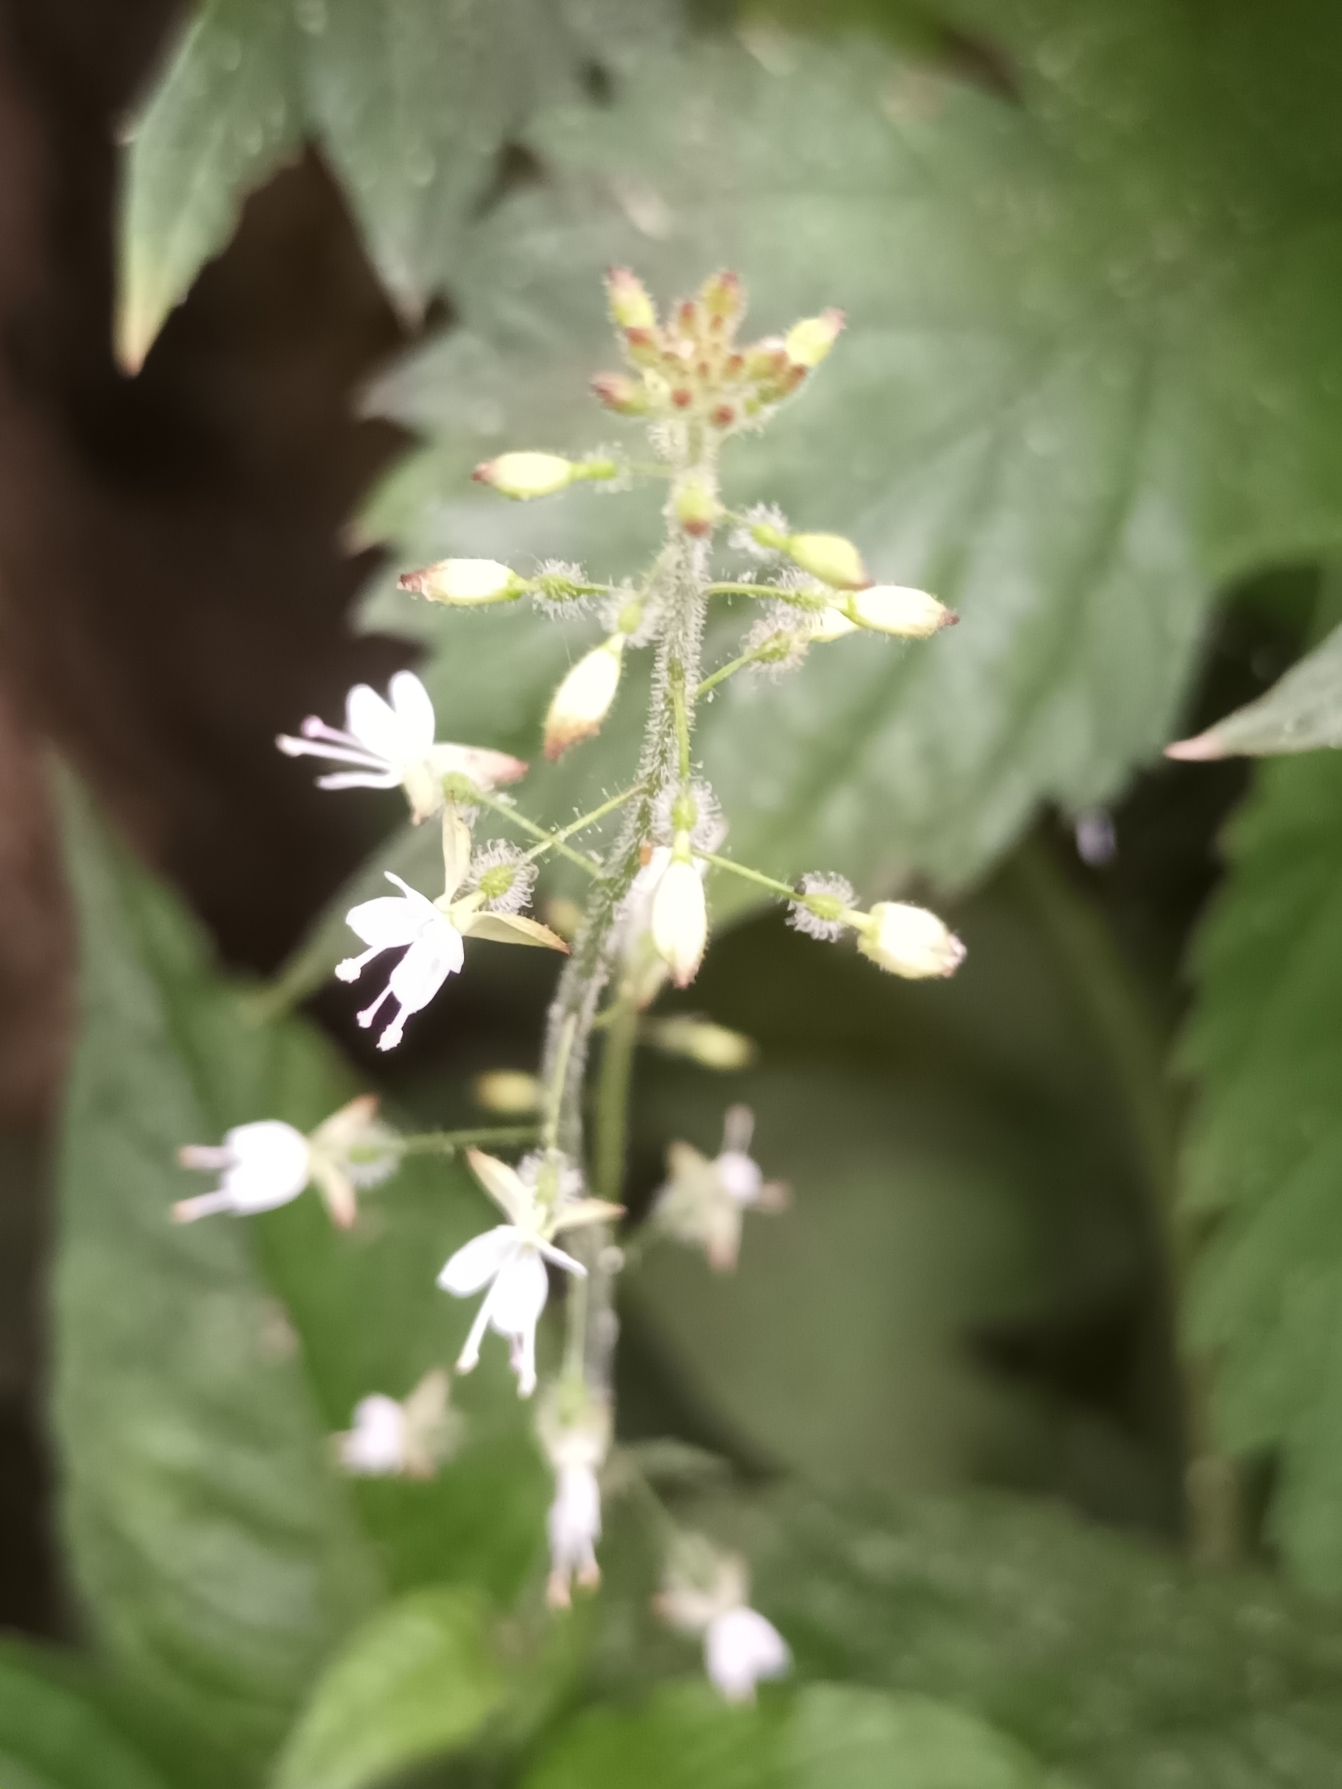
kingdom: Plantae
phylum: Tracheophyta
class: Magnoliopsida
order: Myrtales
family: Onagraceae
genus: Circaea
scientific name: Circaea lutetiana
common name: Dunet steffensurt
